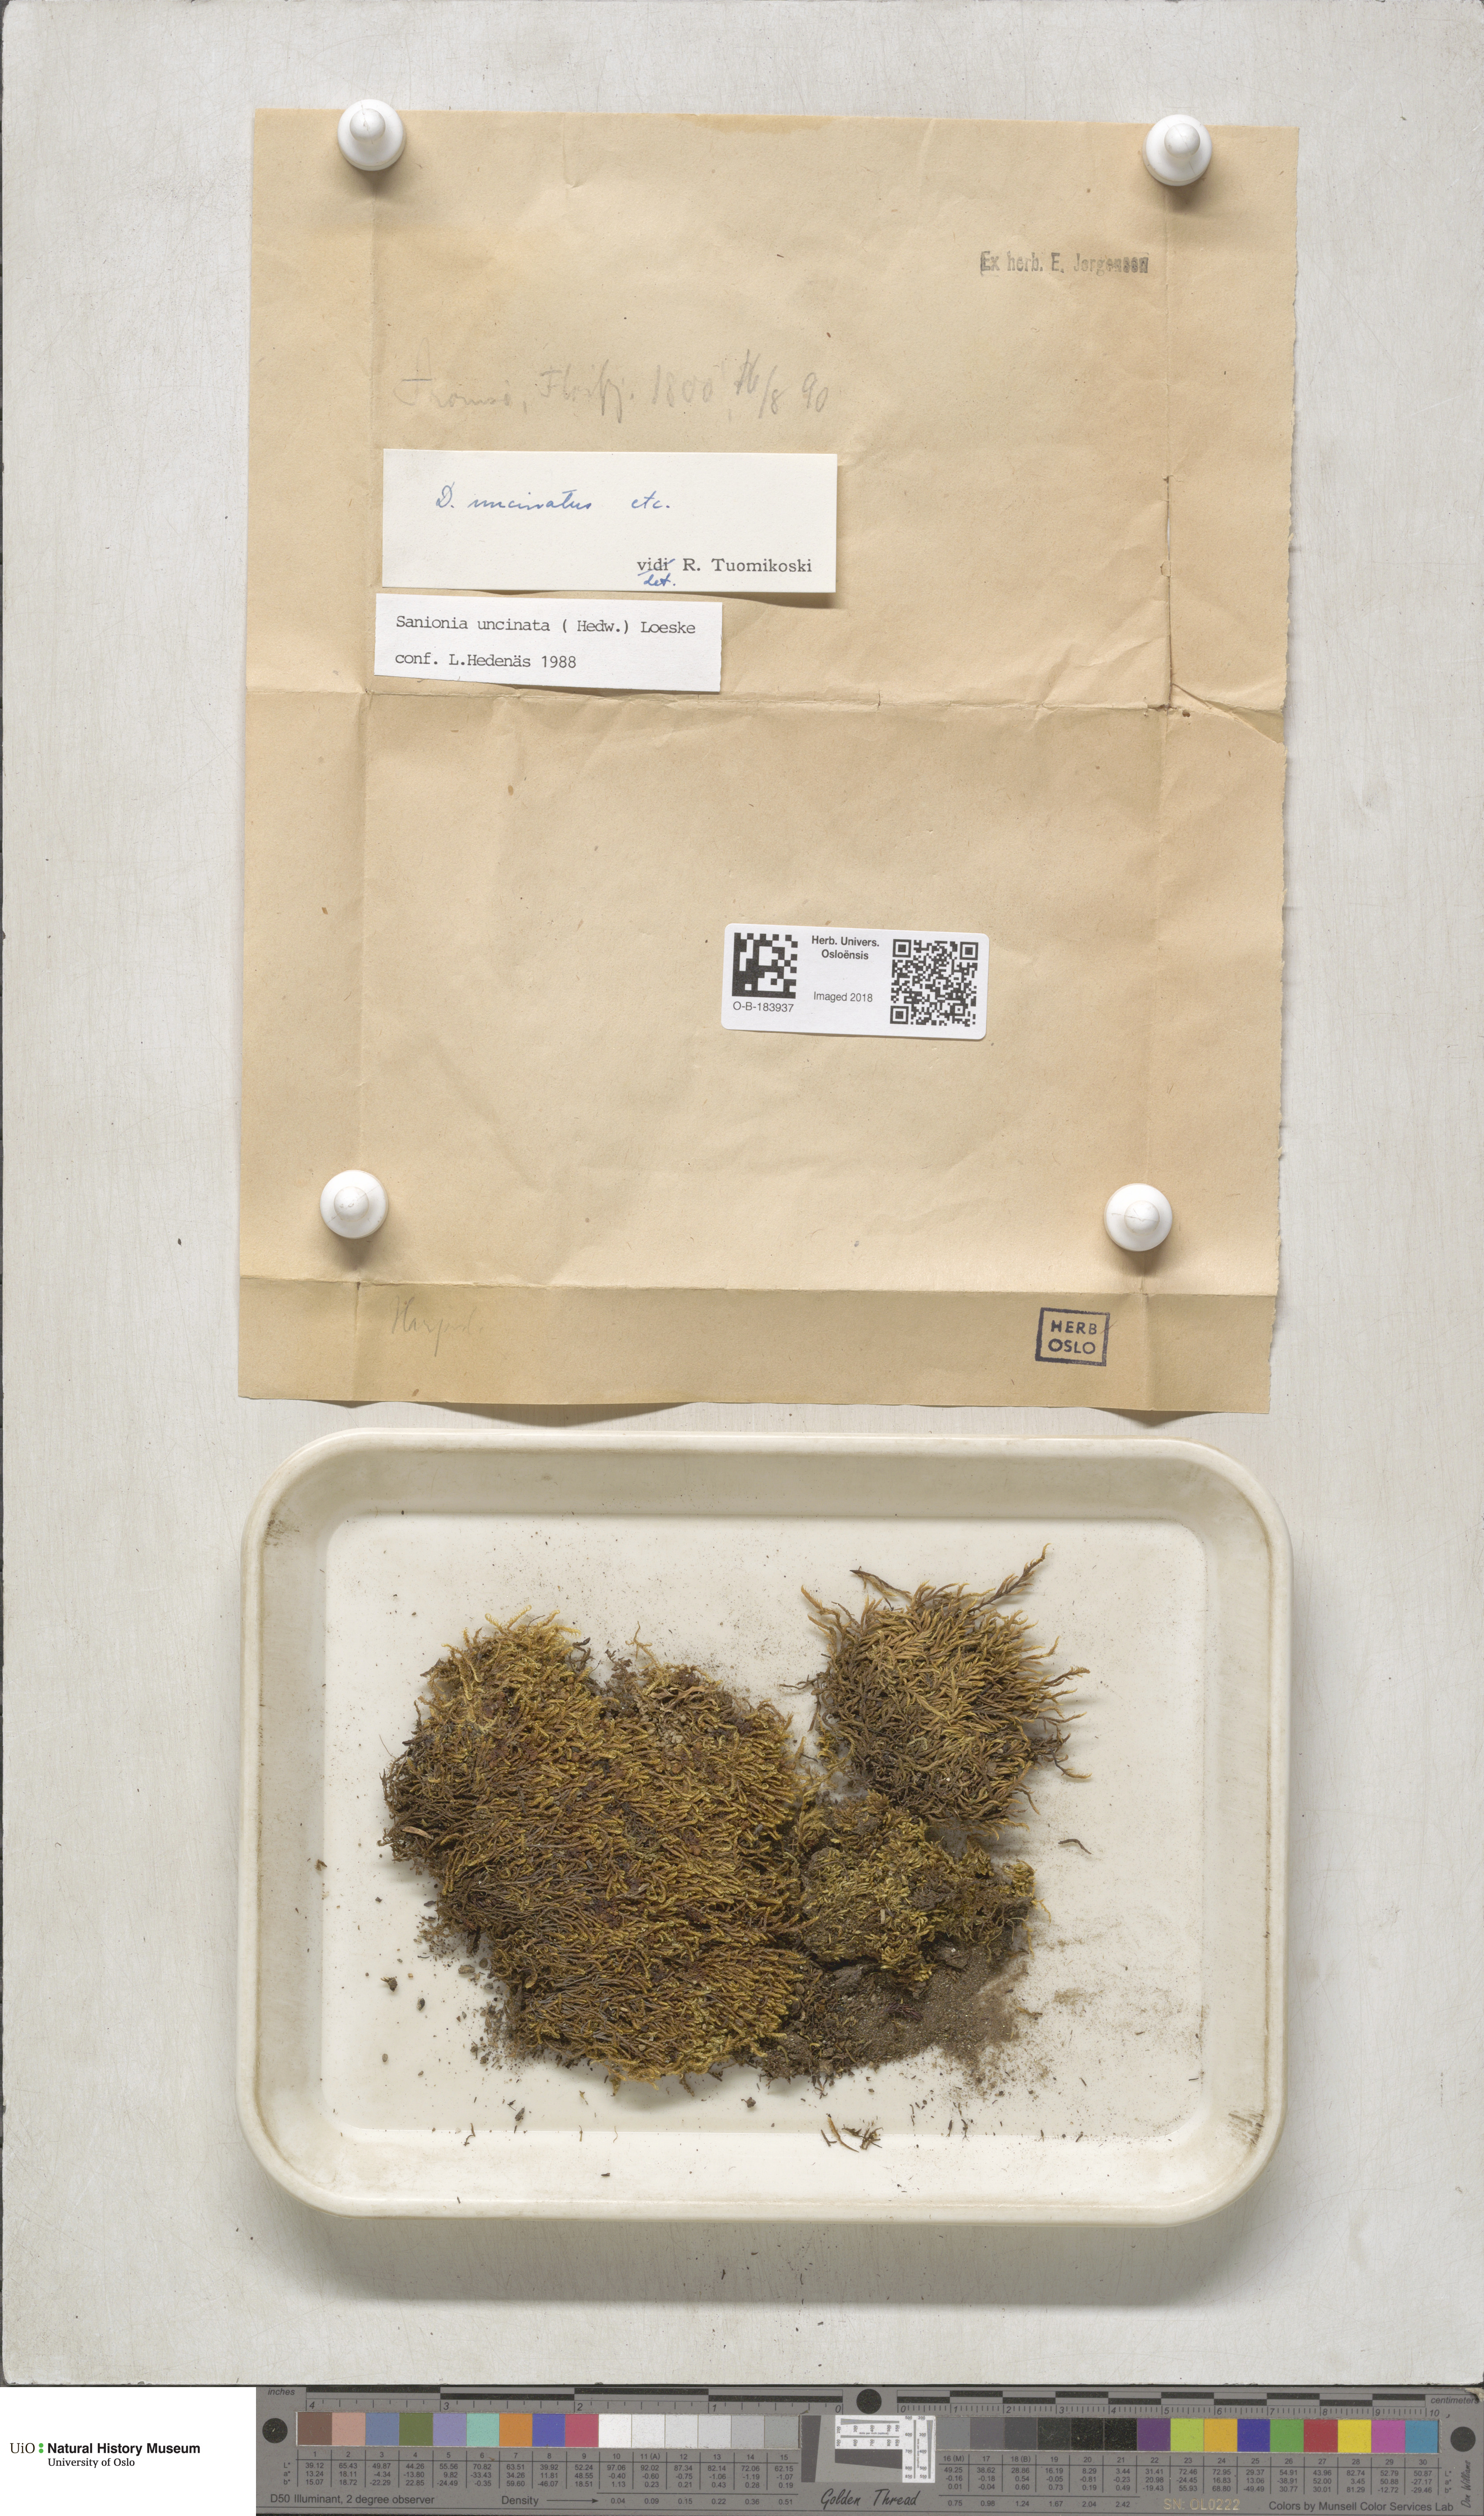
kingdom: Plantae
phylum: Bryophyta
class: Bryopsida
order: Hypnales
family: Scorpidiaceae
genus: Sanionia
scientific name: Sanionia uncinata
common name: Sickle moss
